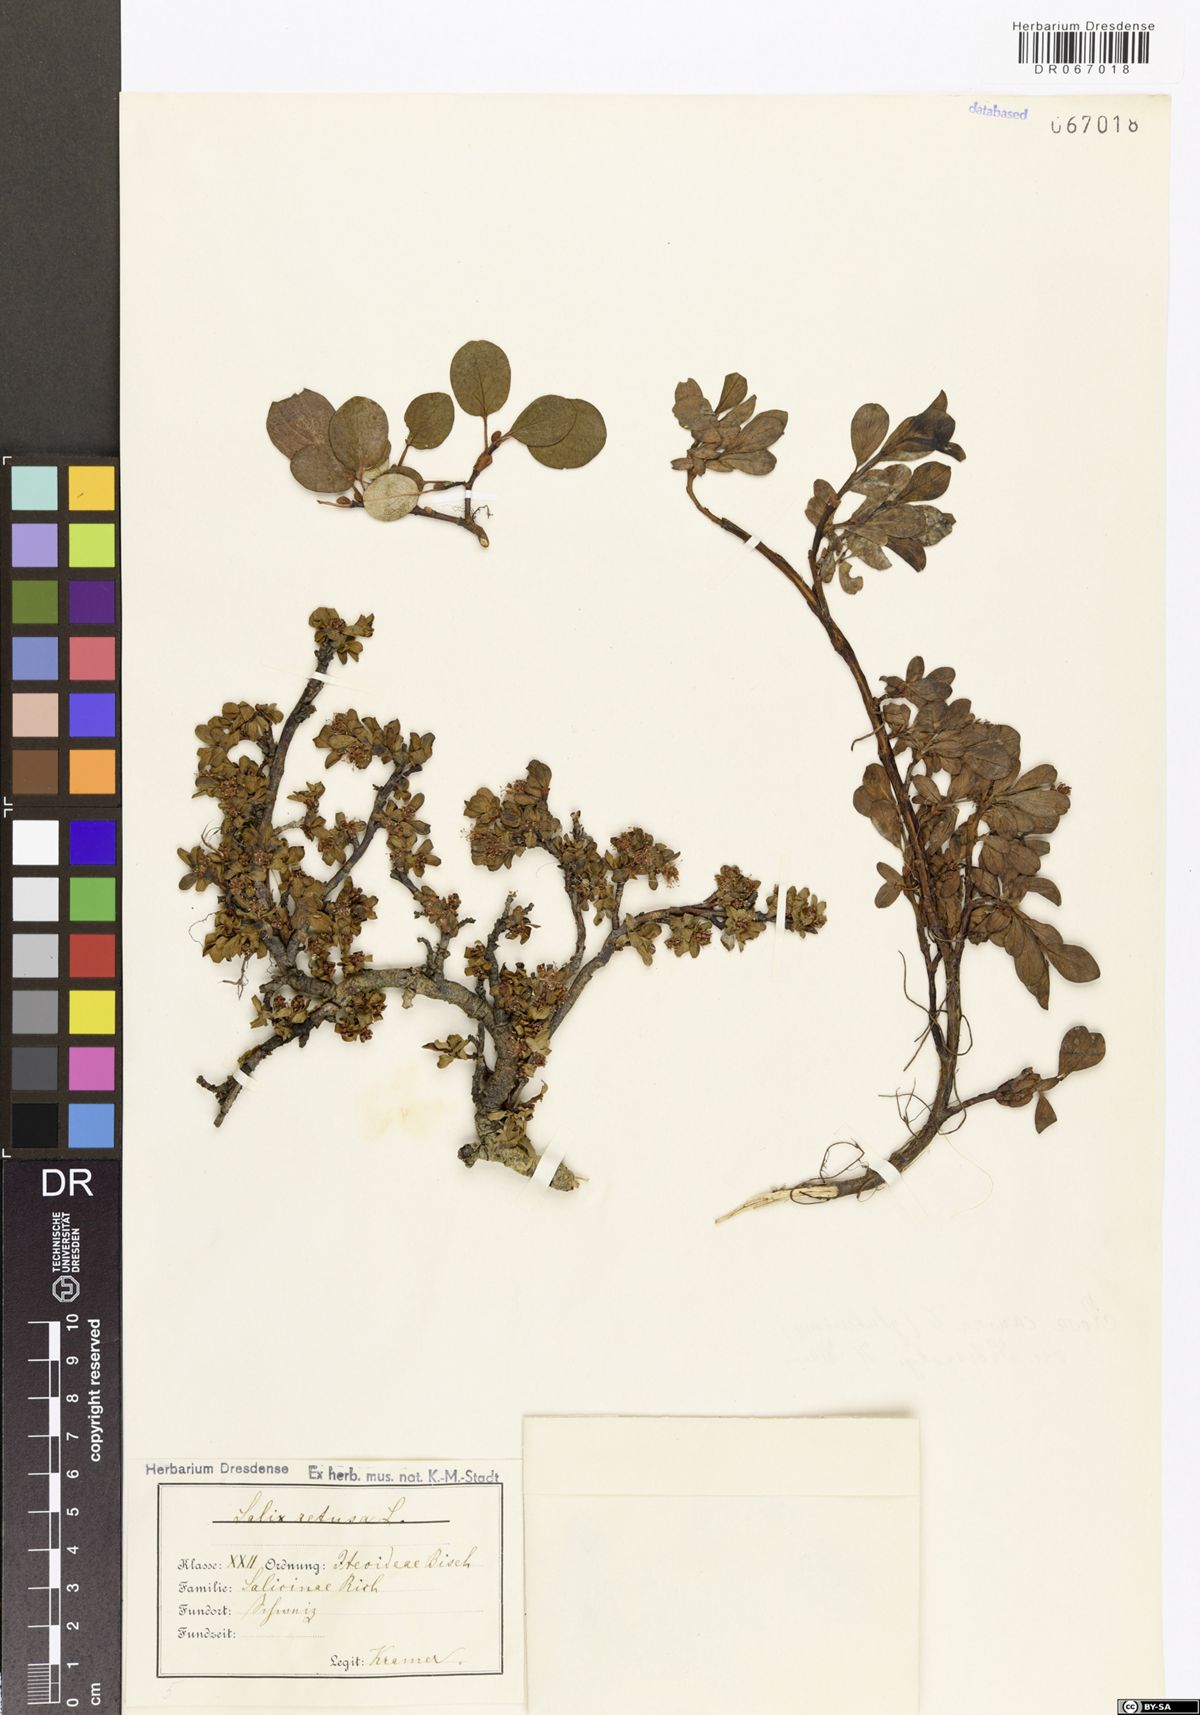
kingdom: Plantae
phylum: Tracheophyta
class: Magnoliopsida
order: Malpighiales
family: Salicaceae
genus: Salix
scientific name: Salix retusa
